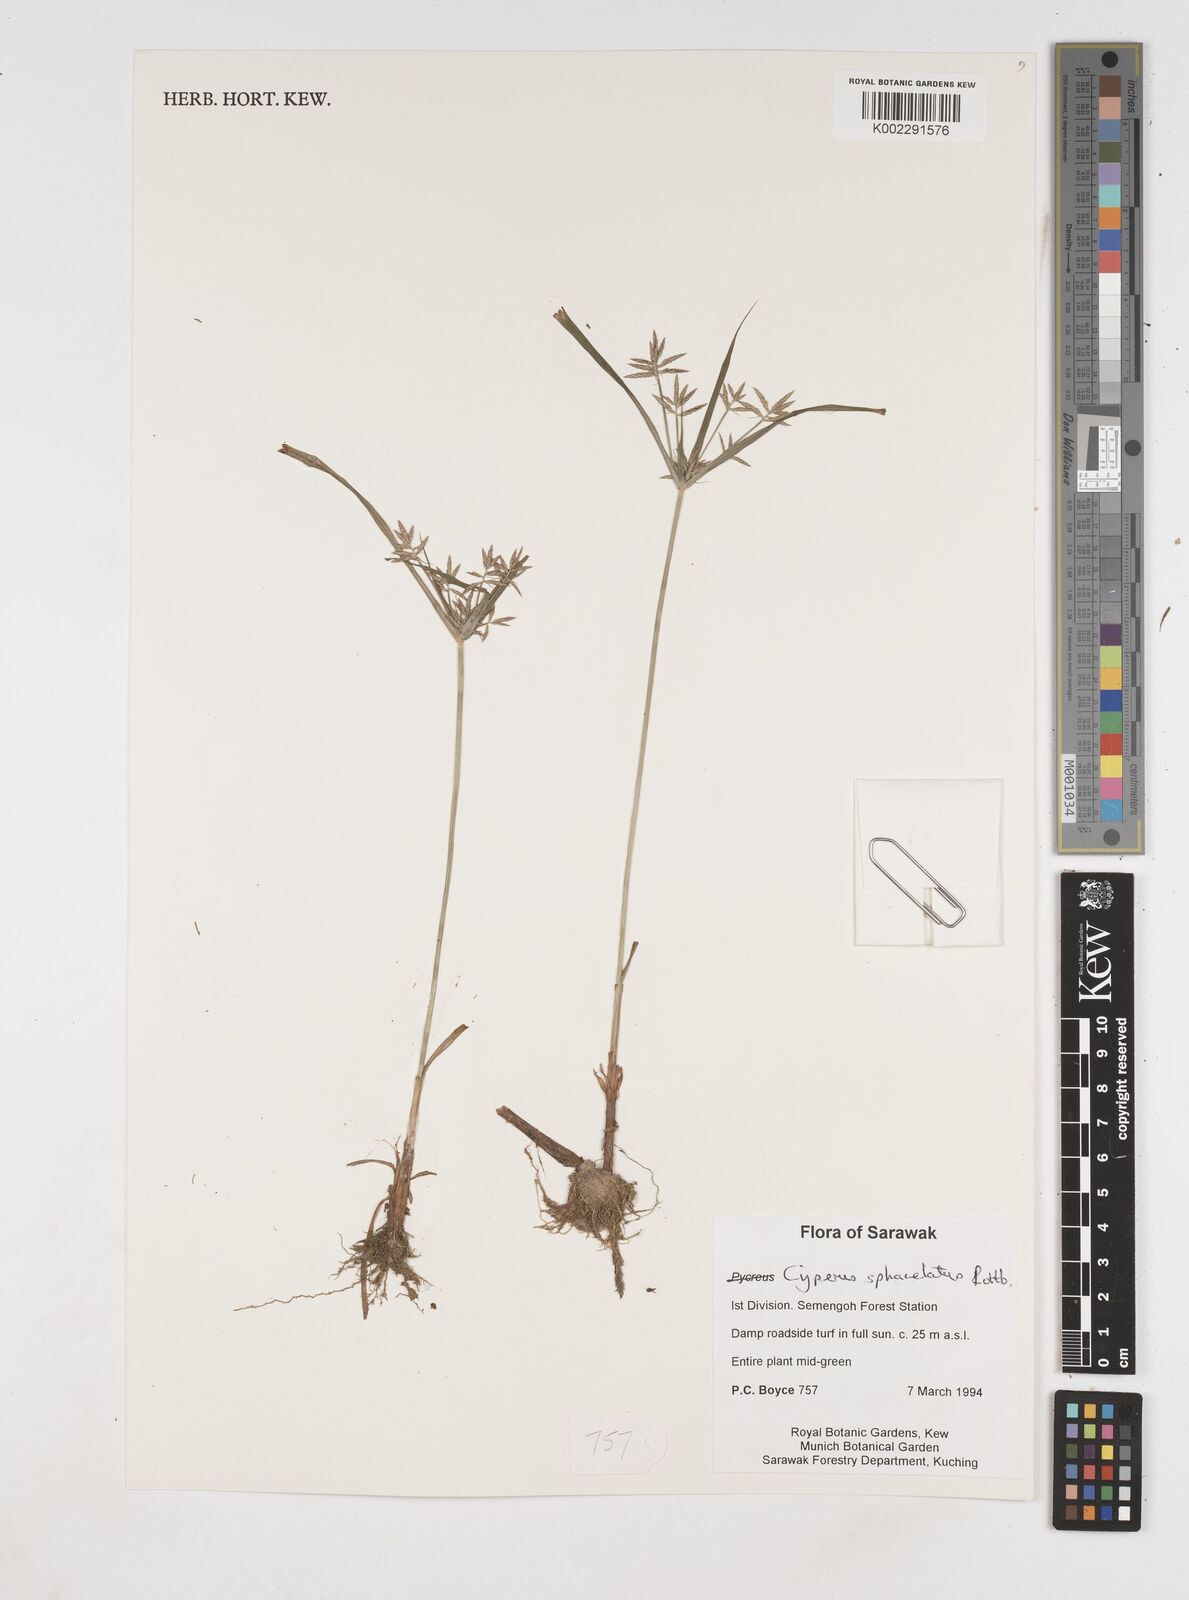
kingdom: Plantae
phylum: Tracheophyta
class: Liliopsida
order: Poales
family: Cyperaceae
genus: Cyperus
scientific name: Cyperus sphacelatus
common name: Roadside flatsedge
